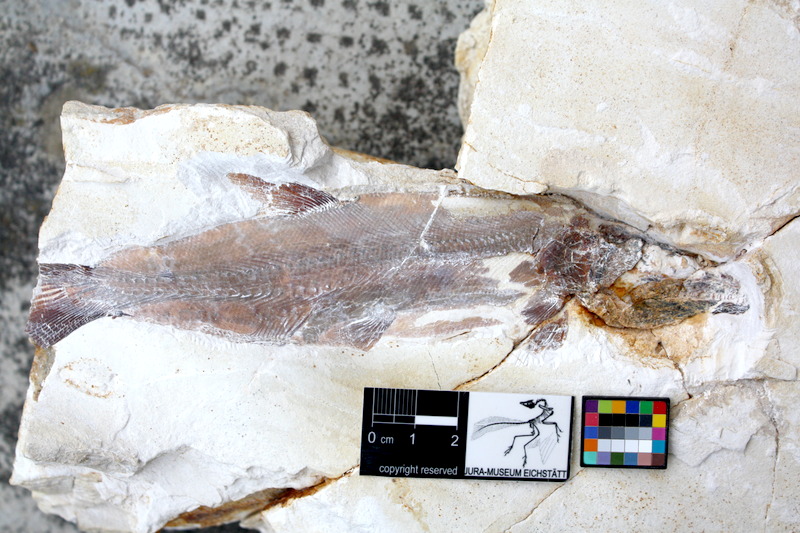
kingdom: Animalia
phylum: Chordata
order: Amiiformes
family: Caturidae
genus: Caturus
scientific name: Caturus
